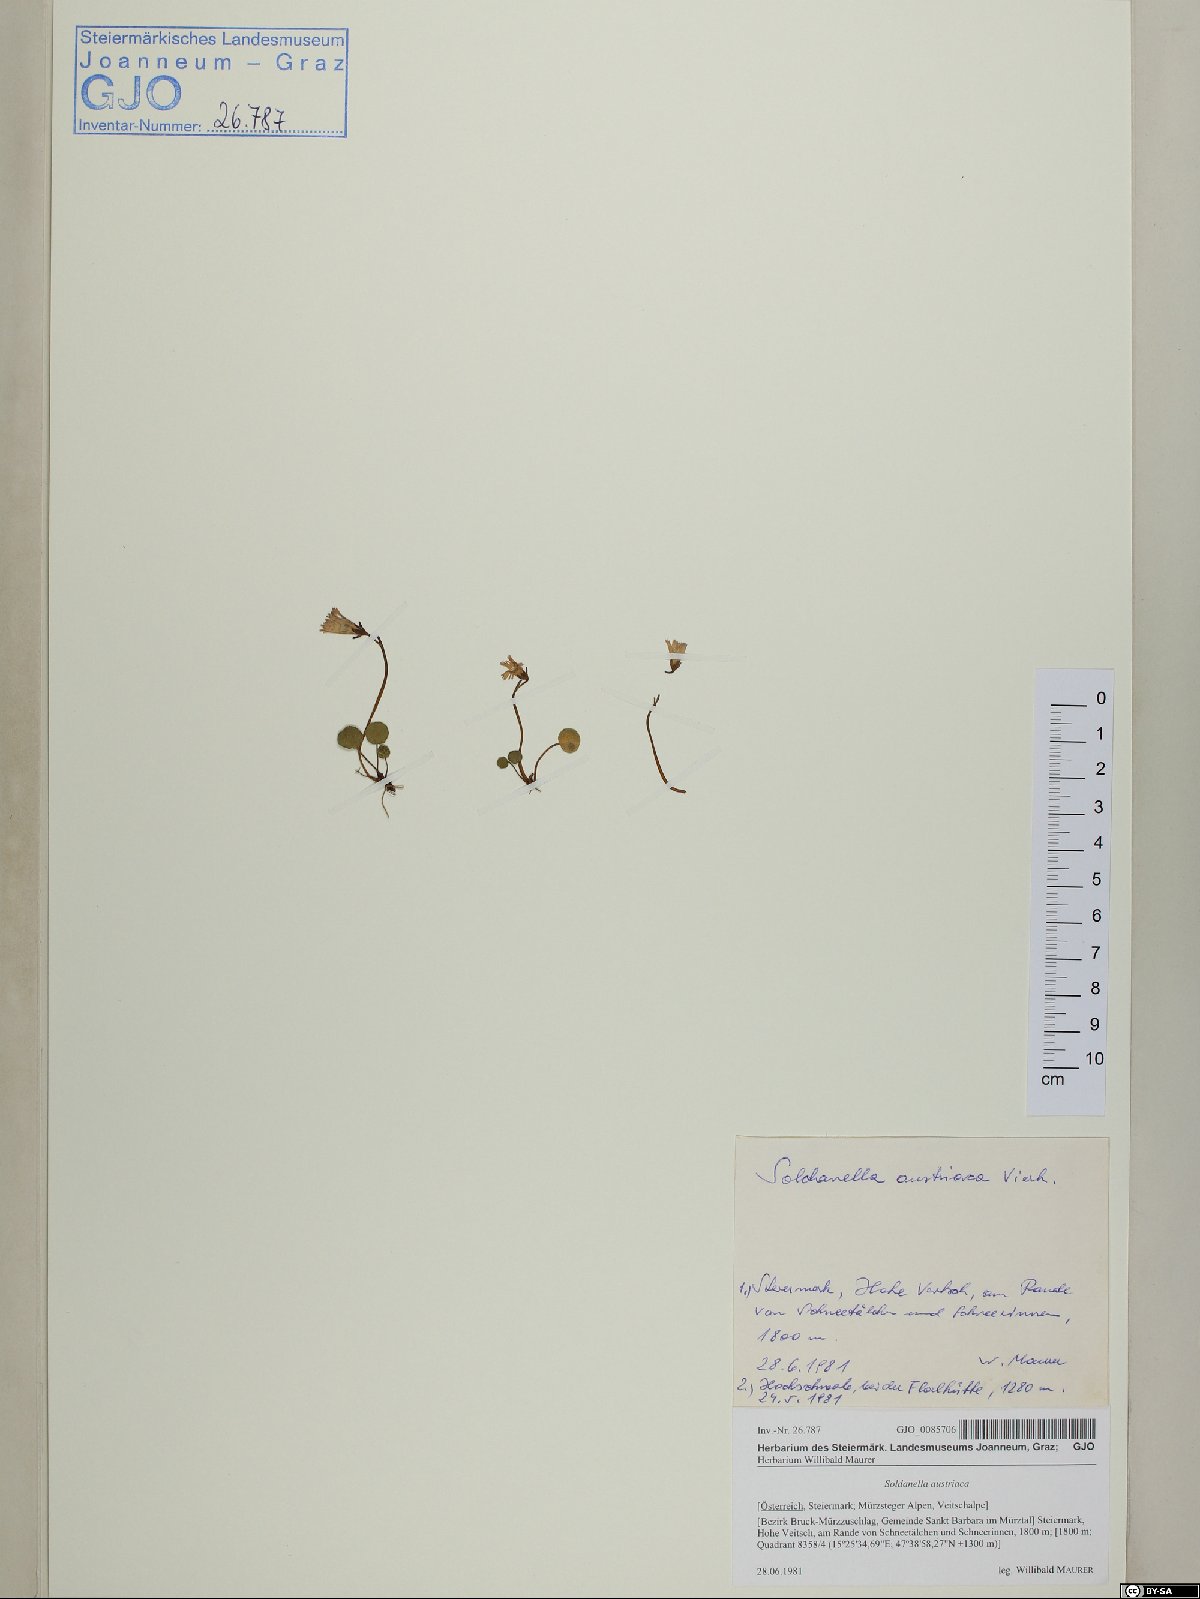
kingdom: Plantae
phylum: Tracheophyta
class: Magnoliopsida
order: Ericales
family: Primulaceae
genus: Soldanella
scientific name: Soldanella austriaca
